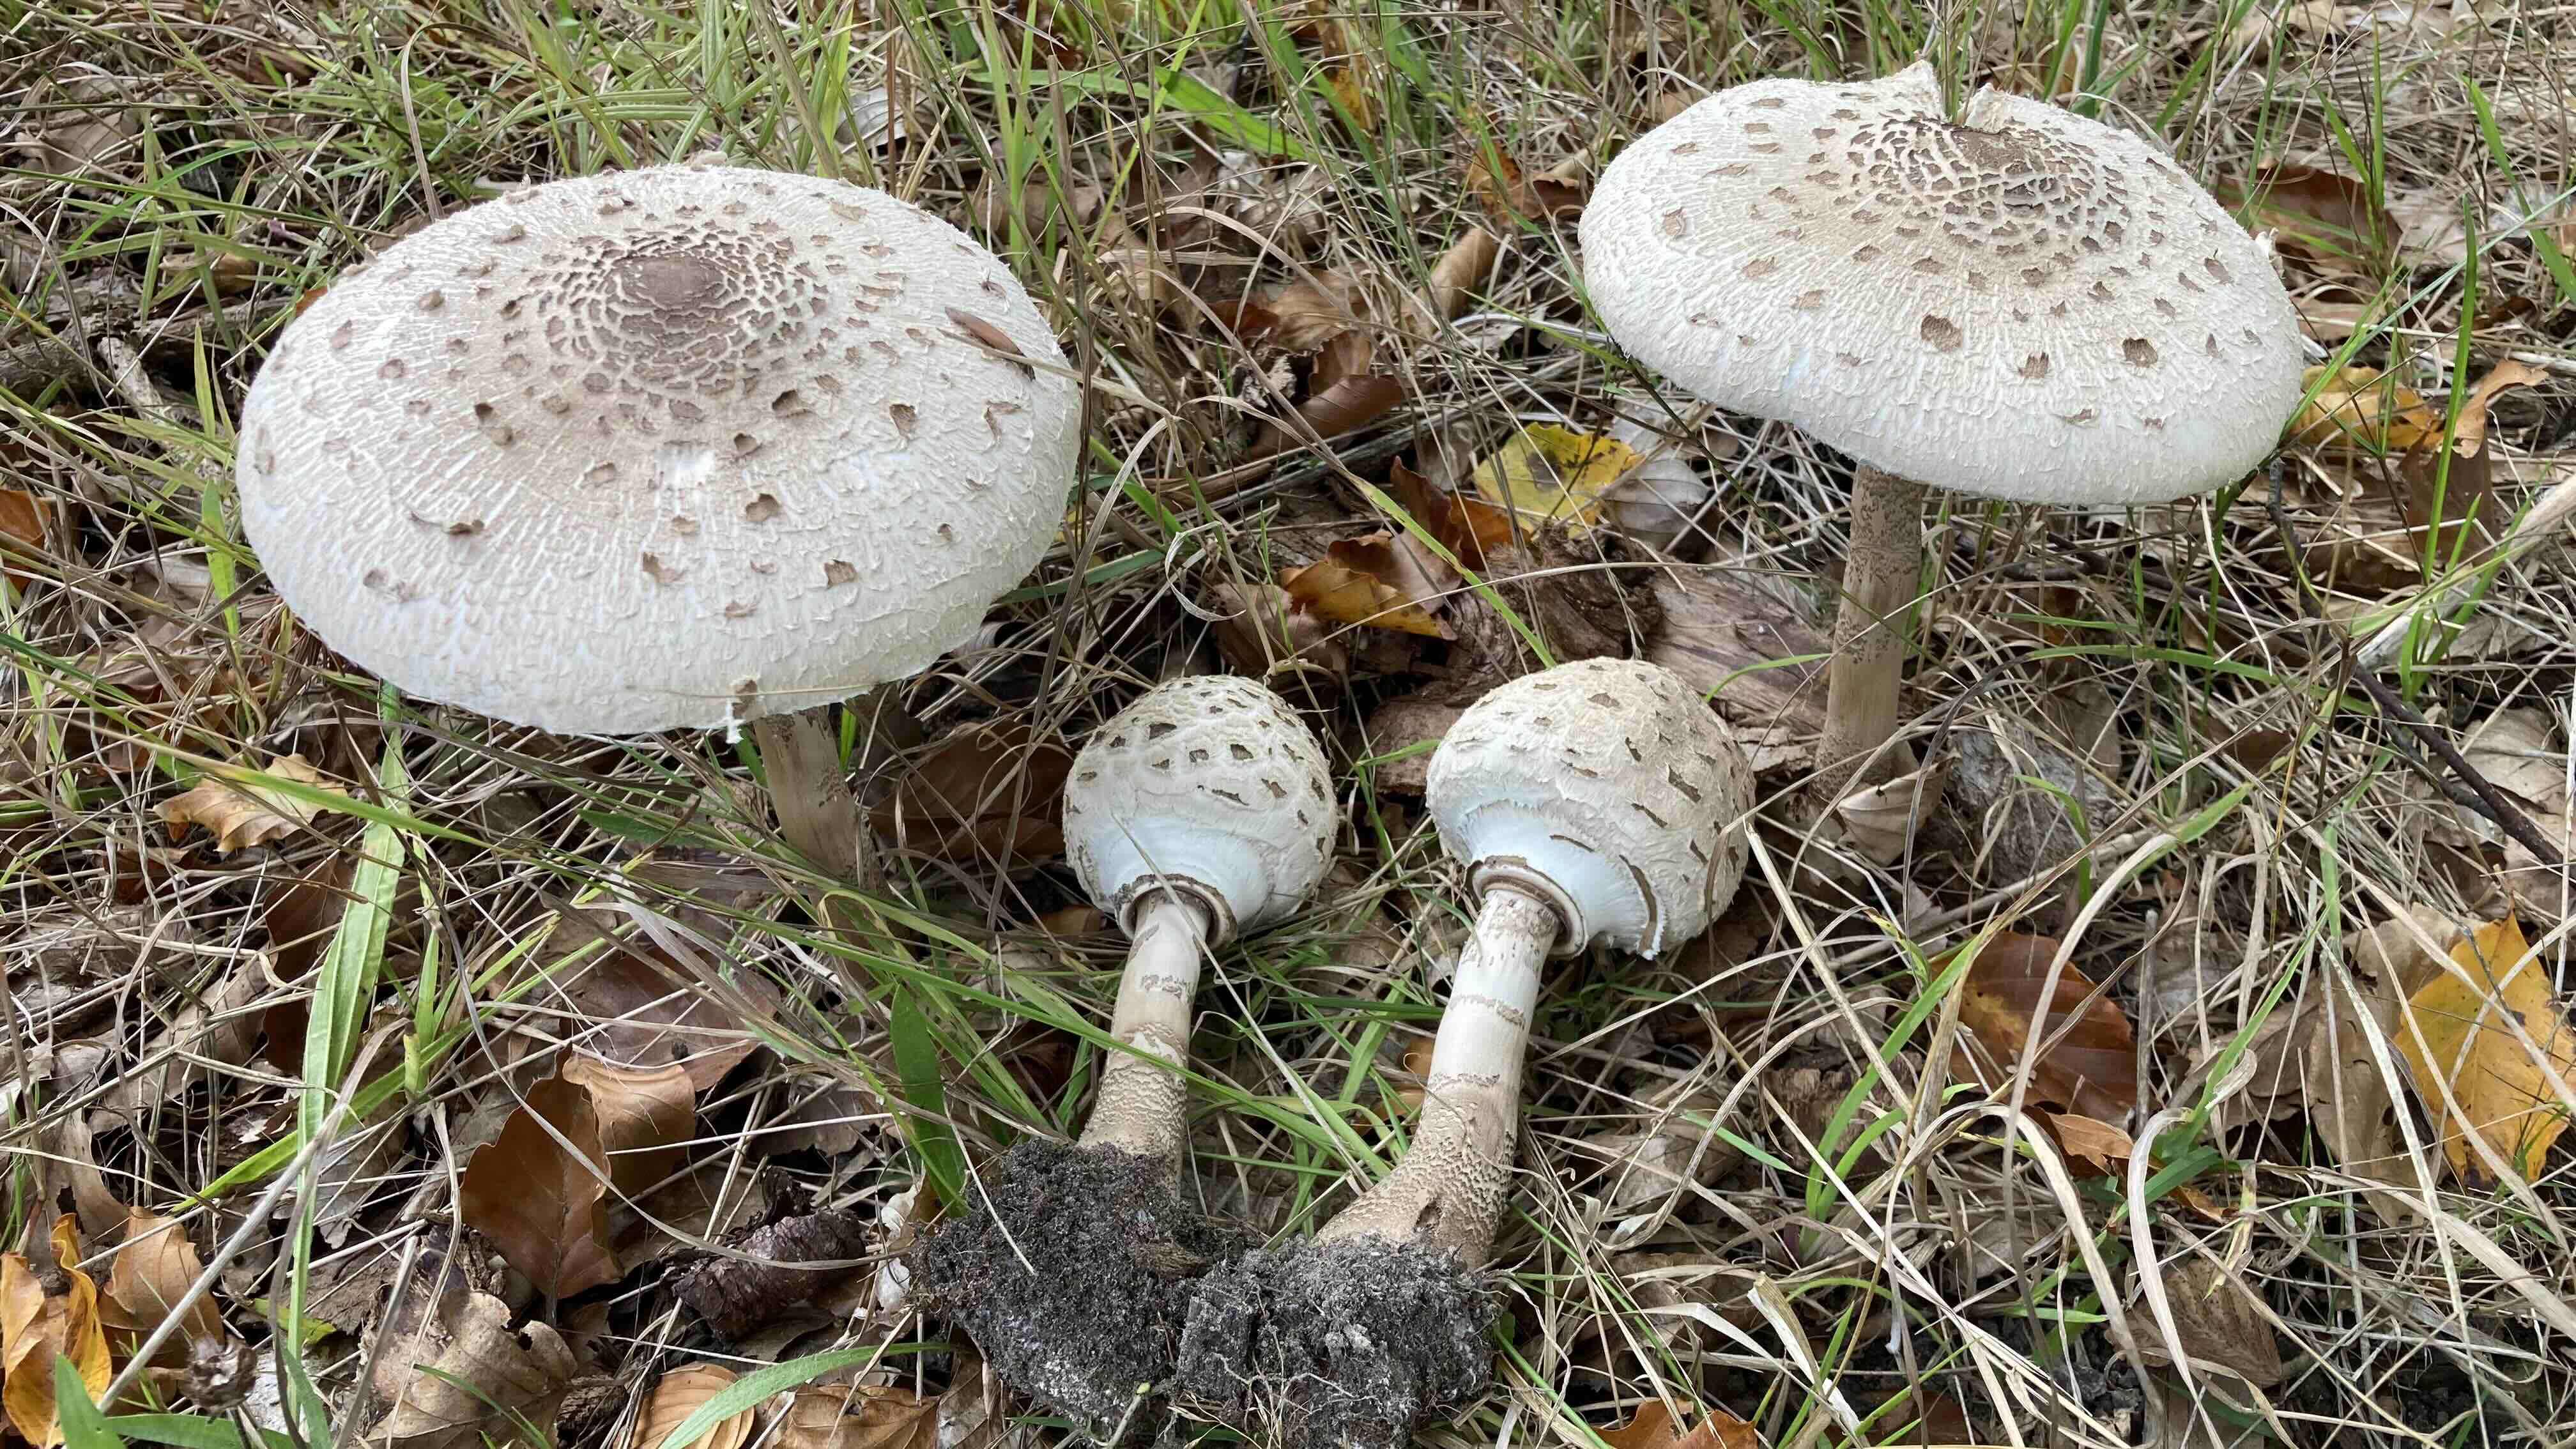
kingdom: Fungi
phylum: Basidiomycota
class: Agaricomycetes
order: Agaricales
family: Agaricaceae
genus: Macrolepiota
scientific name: Macrolepiota procera
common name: stor kæmpeparasolhat
